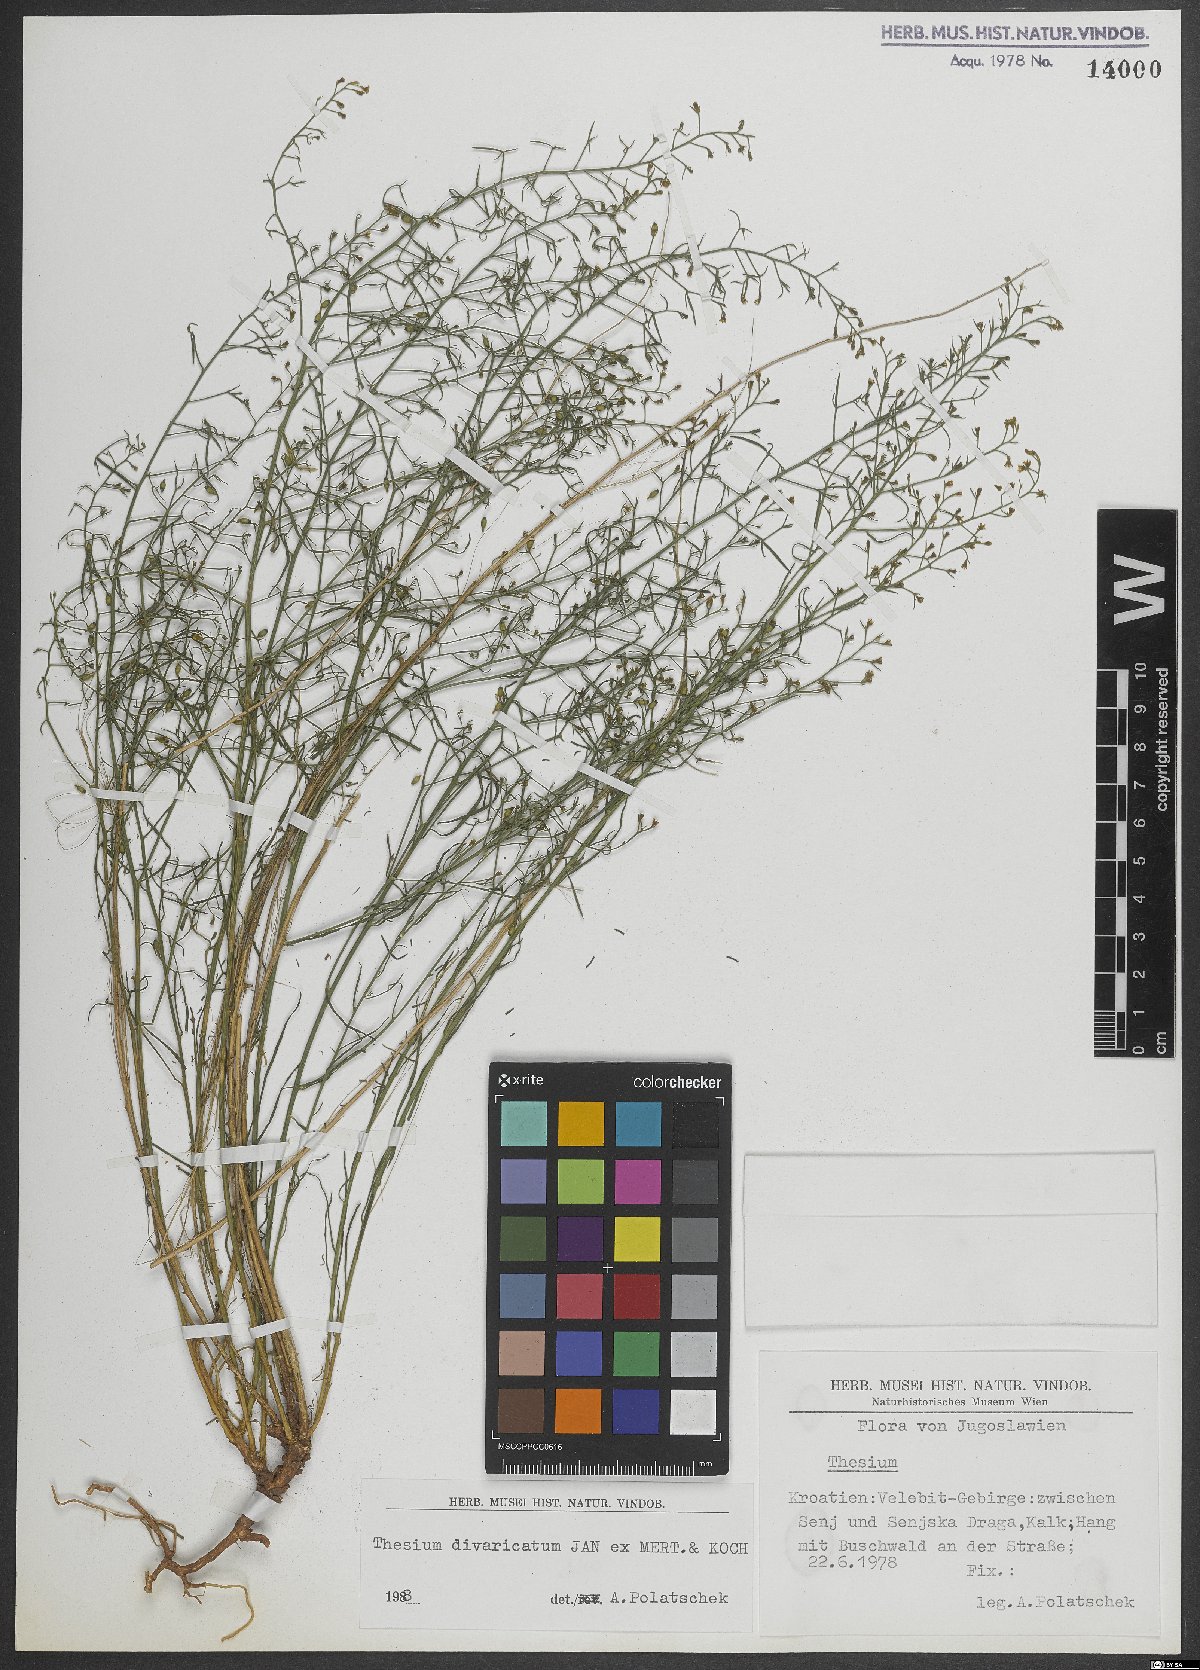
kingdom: Plantae
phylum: Tracheophyta
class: Magnoliopsida
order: Santalales
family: Thesiaceae
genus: Thesium
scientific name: Thesium divaricatum
